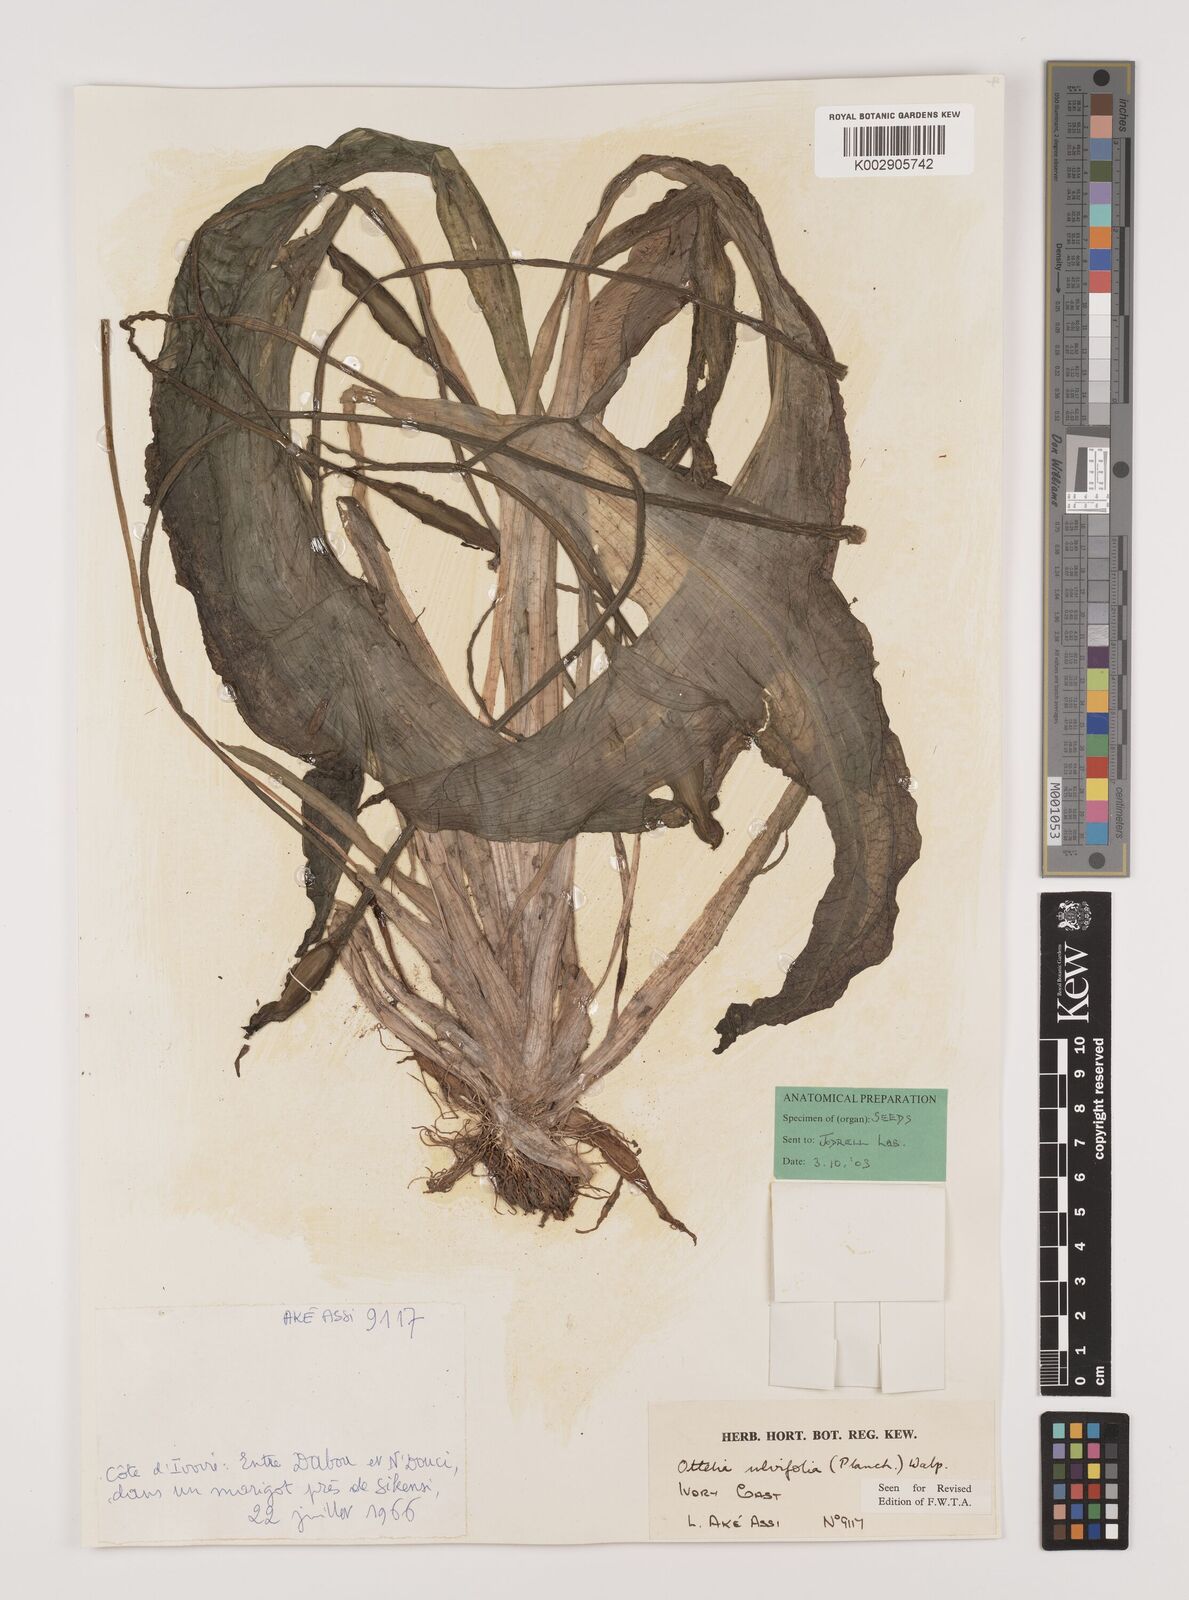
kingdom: Plantae
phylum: Tracheophyta
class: Liliopsida
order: Alismatales
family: Hydrocharitaceae
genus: Ottelia
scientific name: Ottelia ulvifolia
